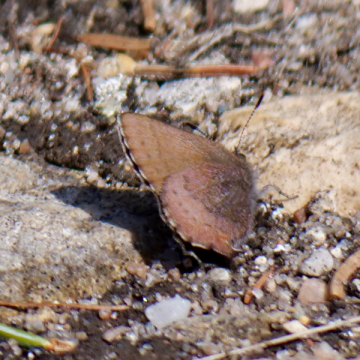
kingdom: Animalia
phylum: Arthropoda
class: Insecta
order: Lepidoptera
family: Lycaenidae
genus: Incisalia
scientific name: Incisalia irioides
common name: Brown Elfin
